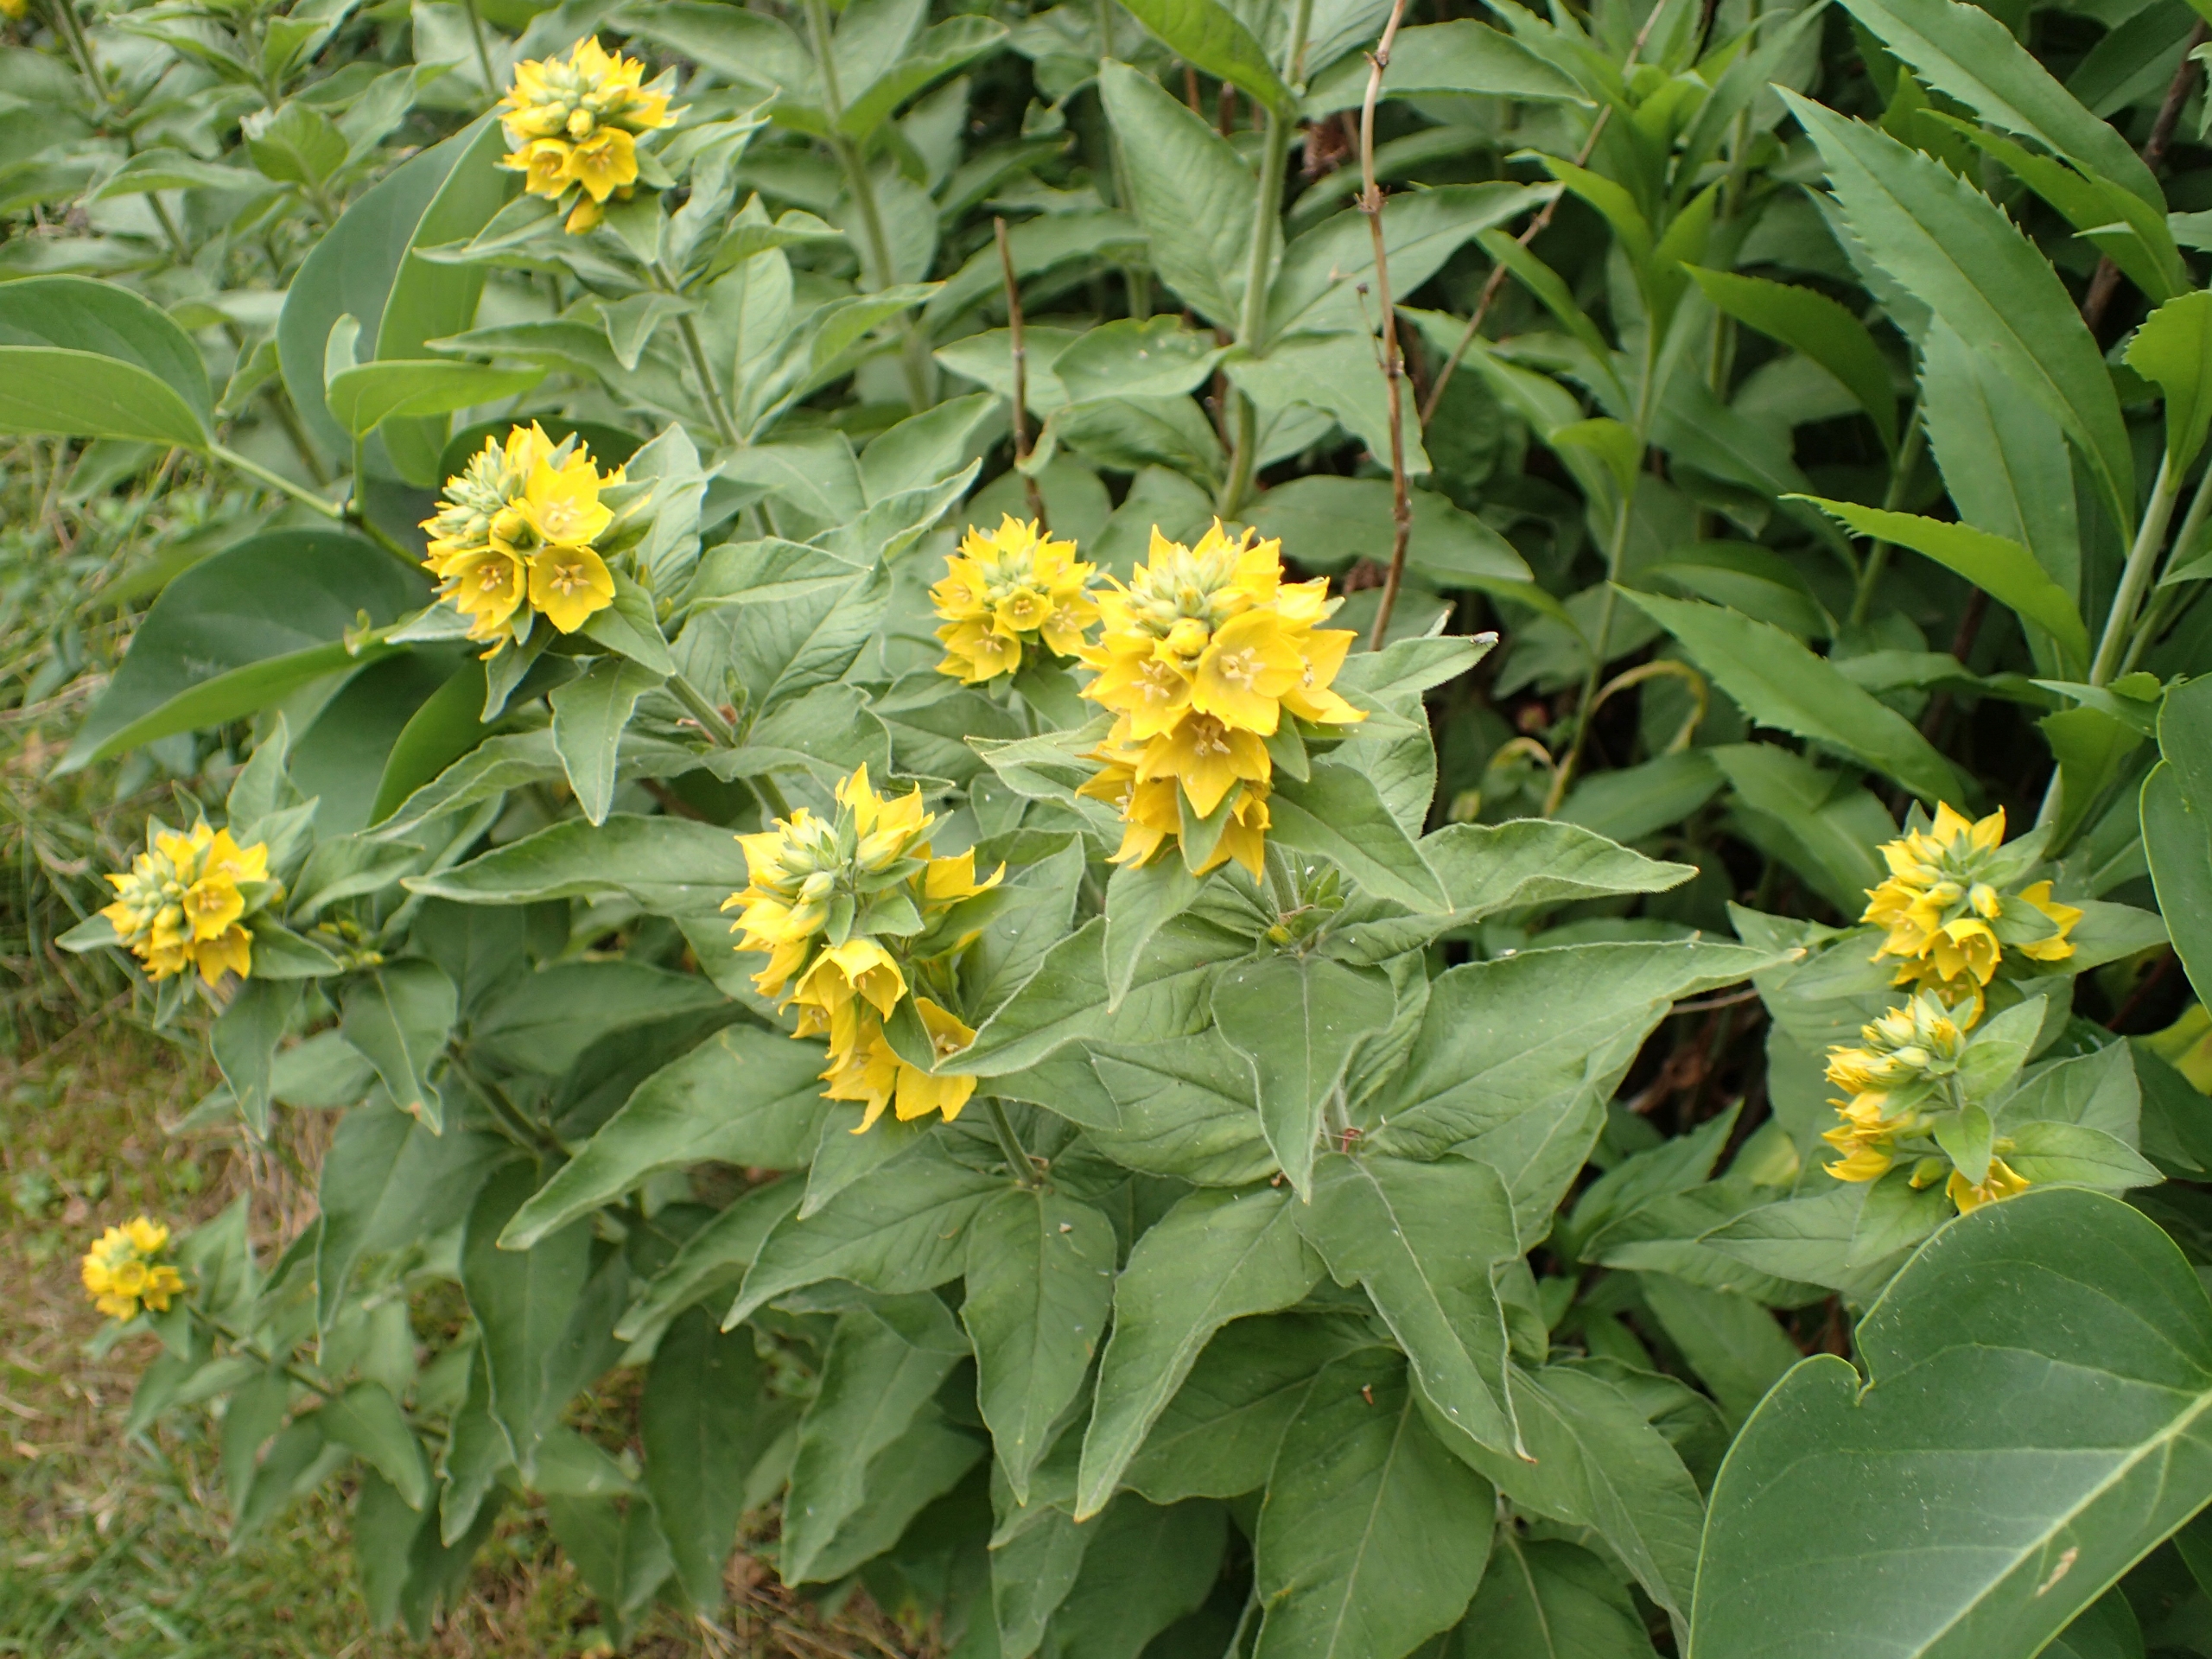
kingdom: Plantae
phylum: Tracheophyta
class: Magnoliopsida
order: Ericales
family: Primulaceae
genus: Lysimachia
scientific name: Lysimachia punctata
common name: Prikbladet fredløs
